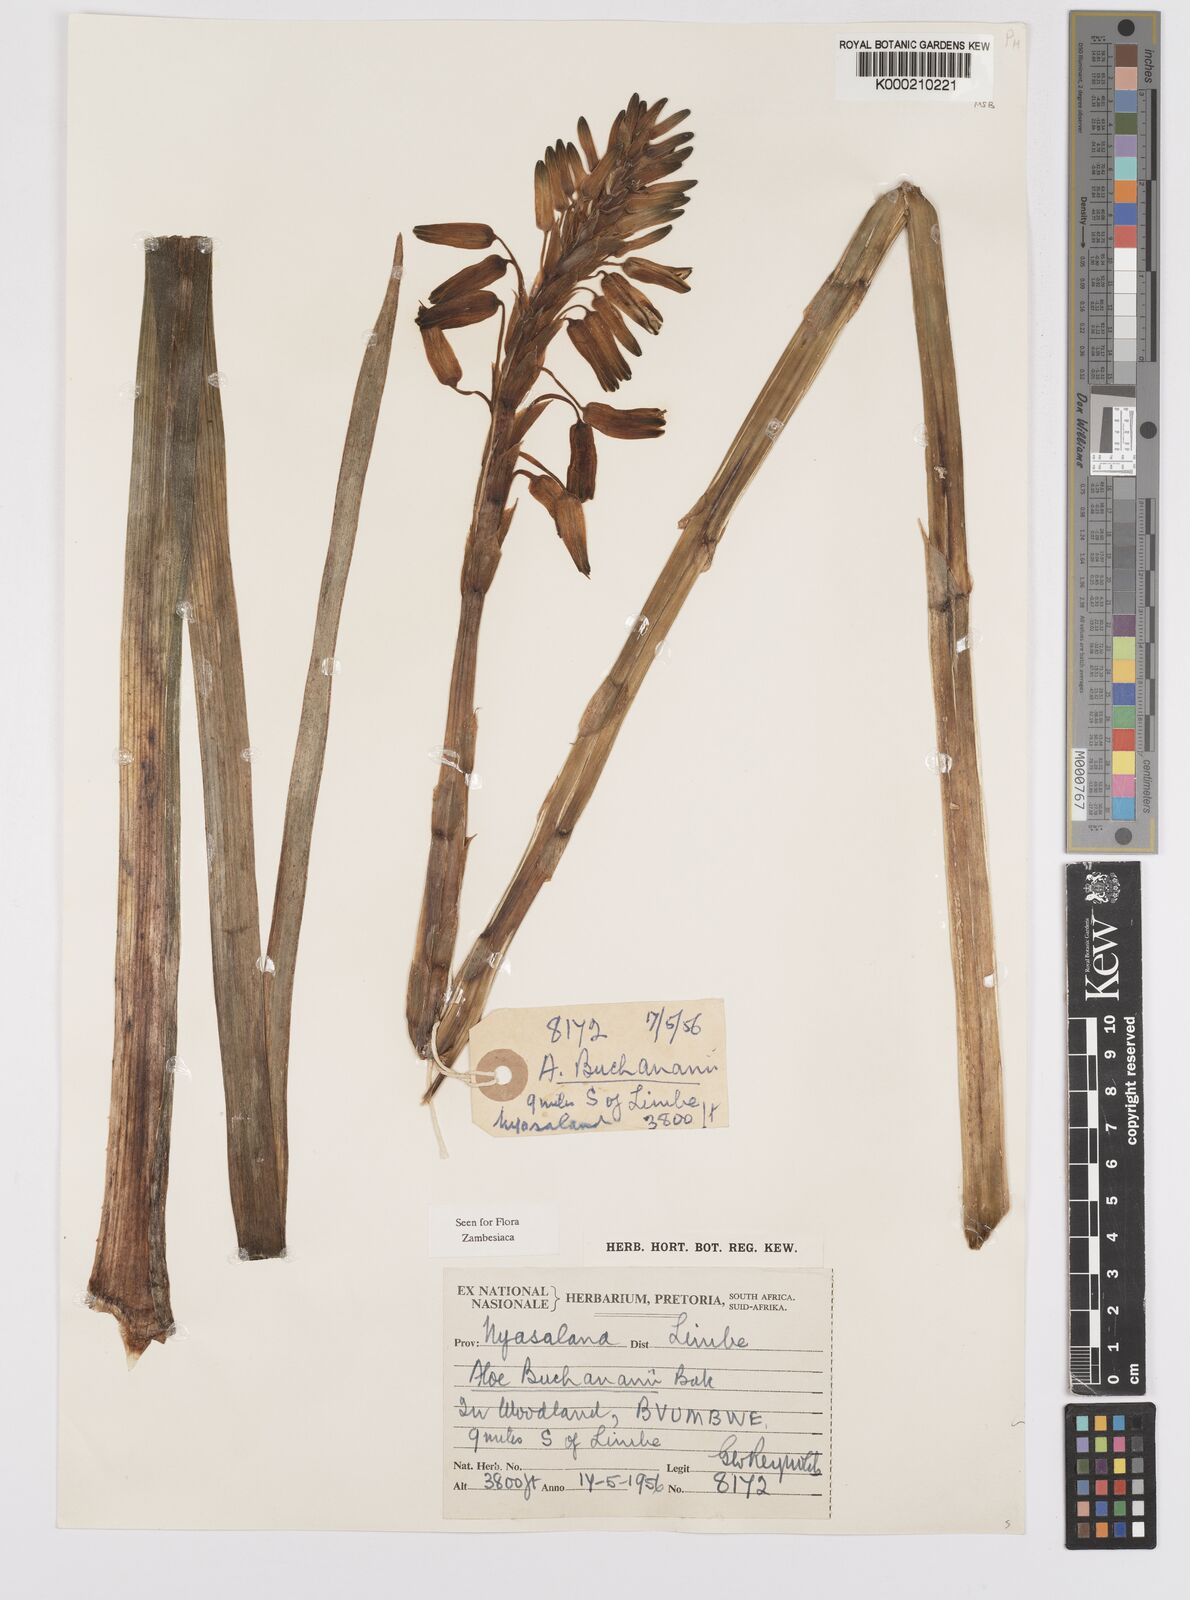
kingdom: Plantae
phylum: Tracheophyta
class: Liliopsida
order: Asparagales
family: Asphodelaceae
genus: Aloe
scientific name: Aloe buchananii
